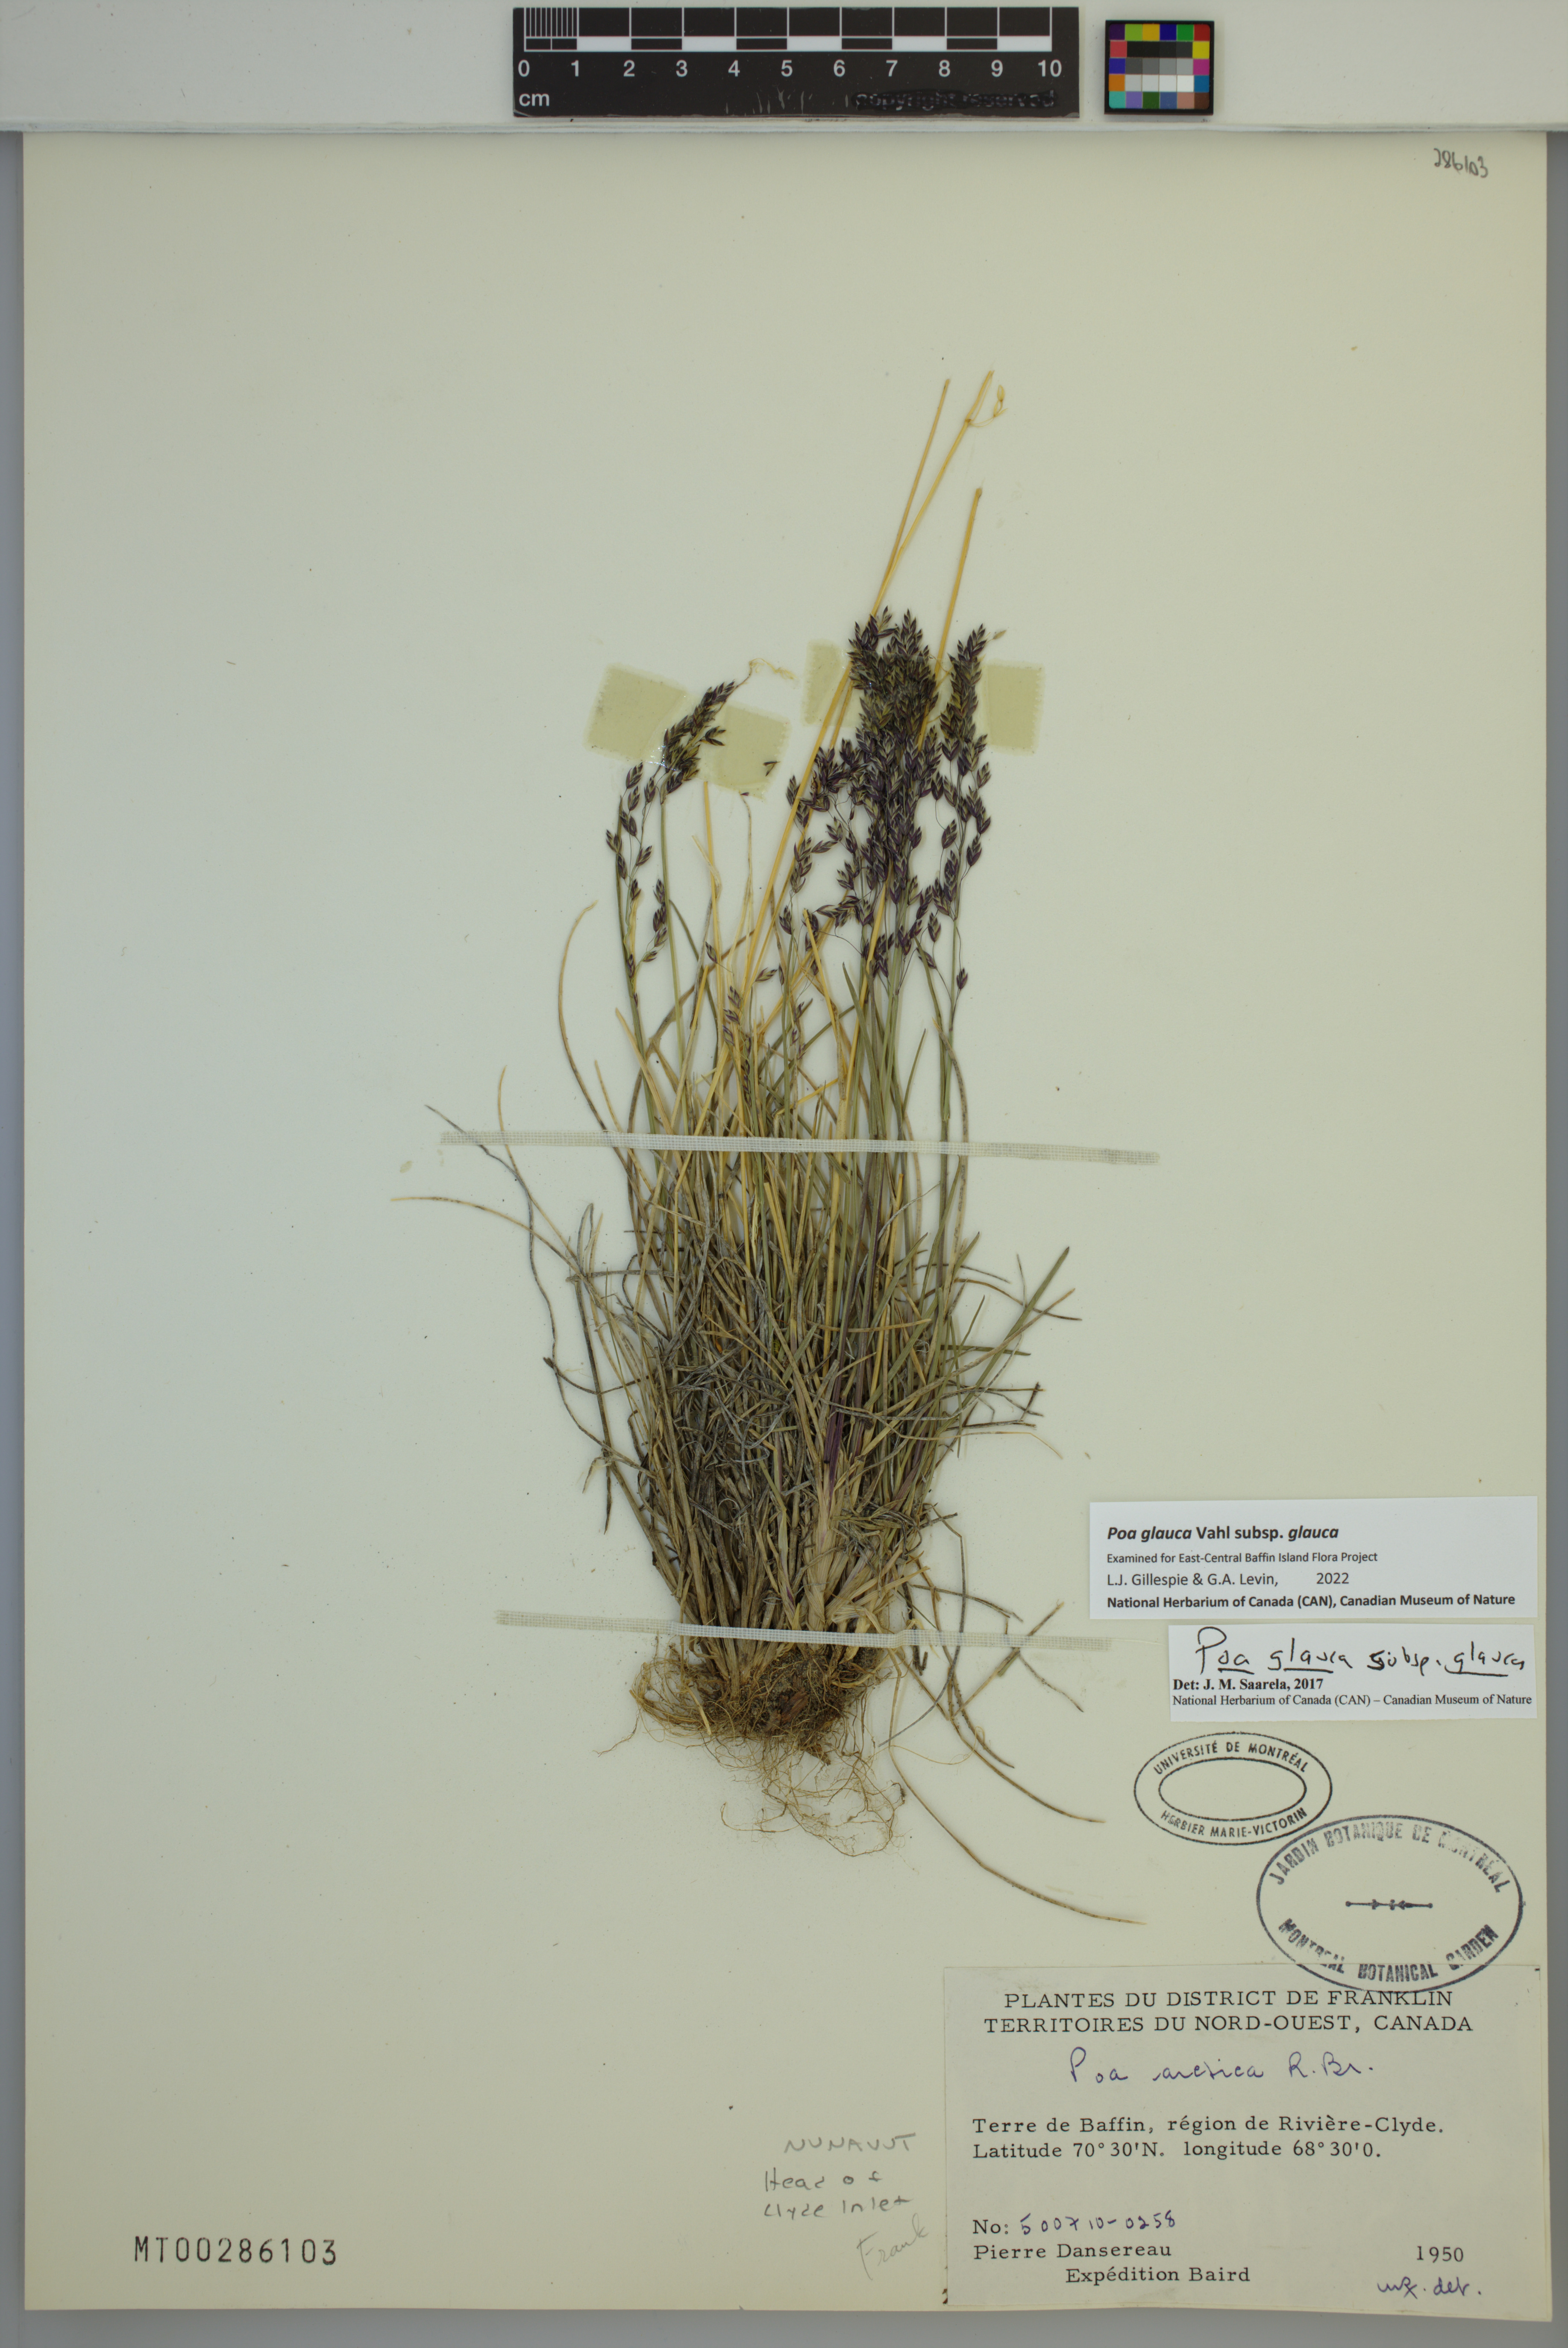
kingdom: Plantae
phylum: Tracheophyta
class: Liliopsida
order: Poales
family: Poaceae
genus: Poa
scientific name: Poa glauca
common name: Glaucous bluegrass
